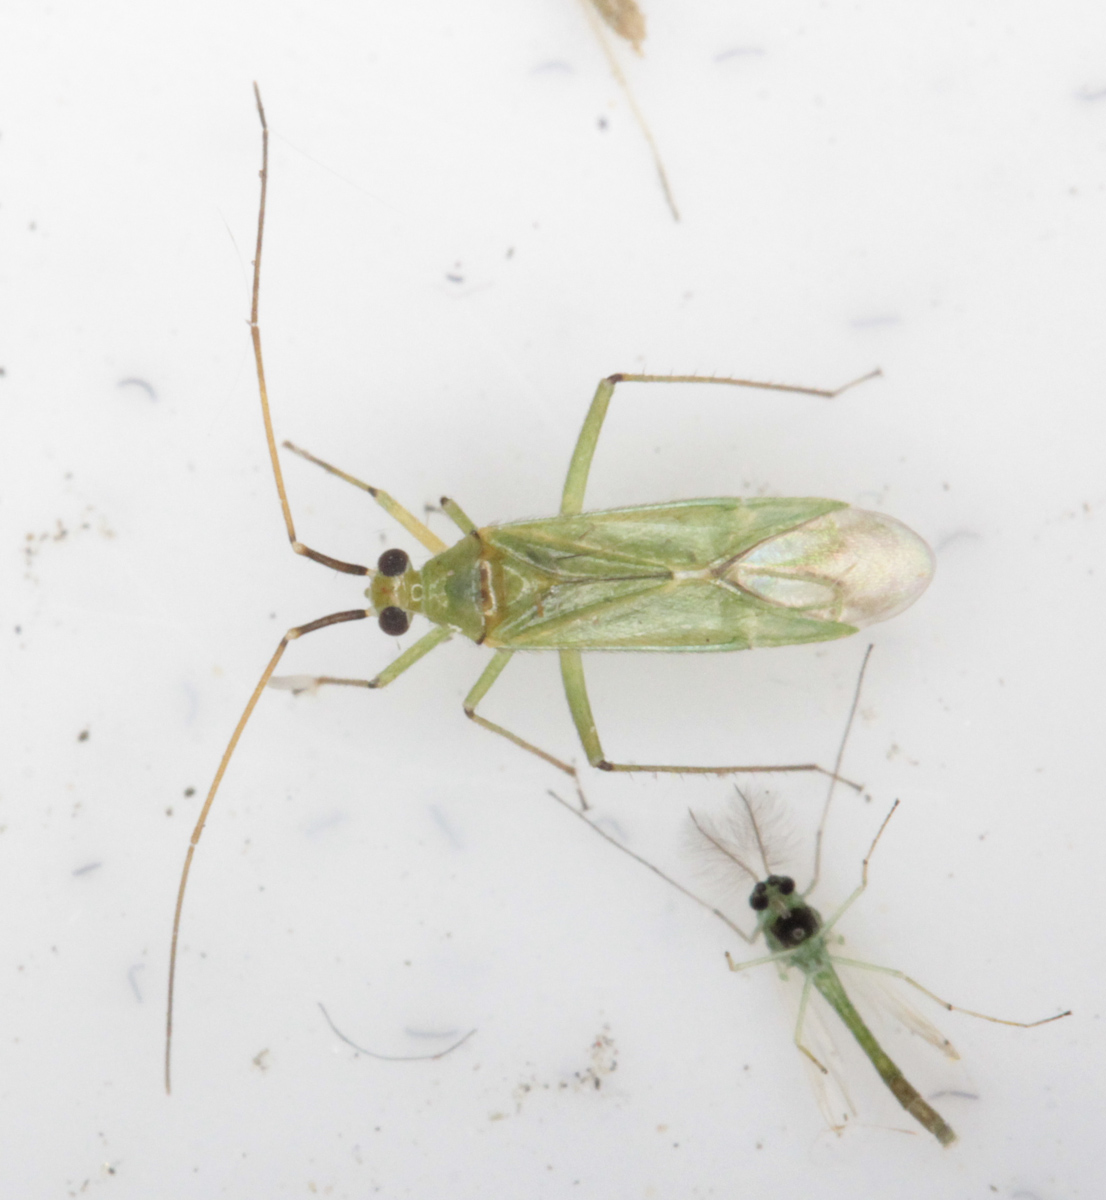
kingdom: Animalia
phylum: Arthropoda
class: Insecta
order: Hemiptera
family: Miridae
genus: Blepharidopterus
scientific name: Blepharidopterus angulatus
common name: Plant bug
